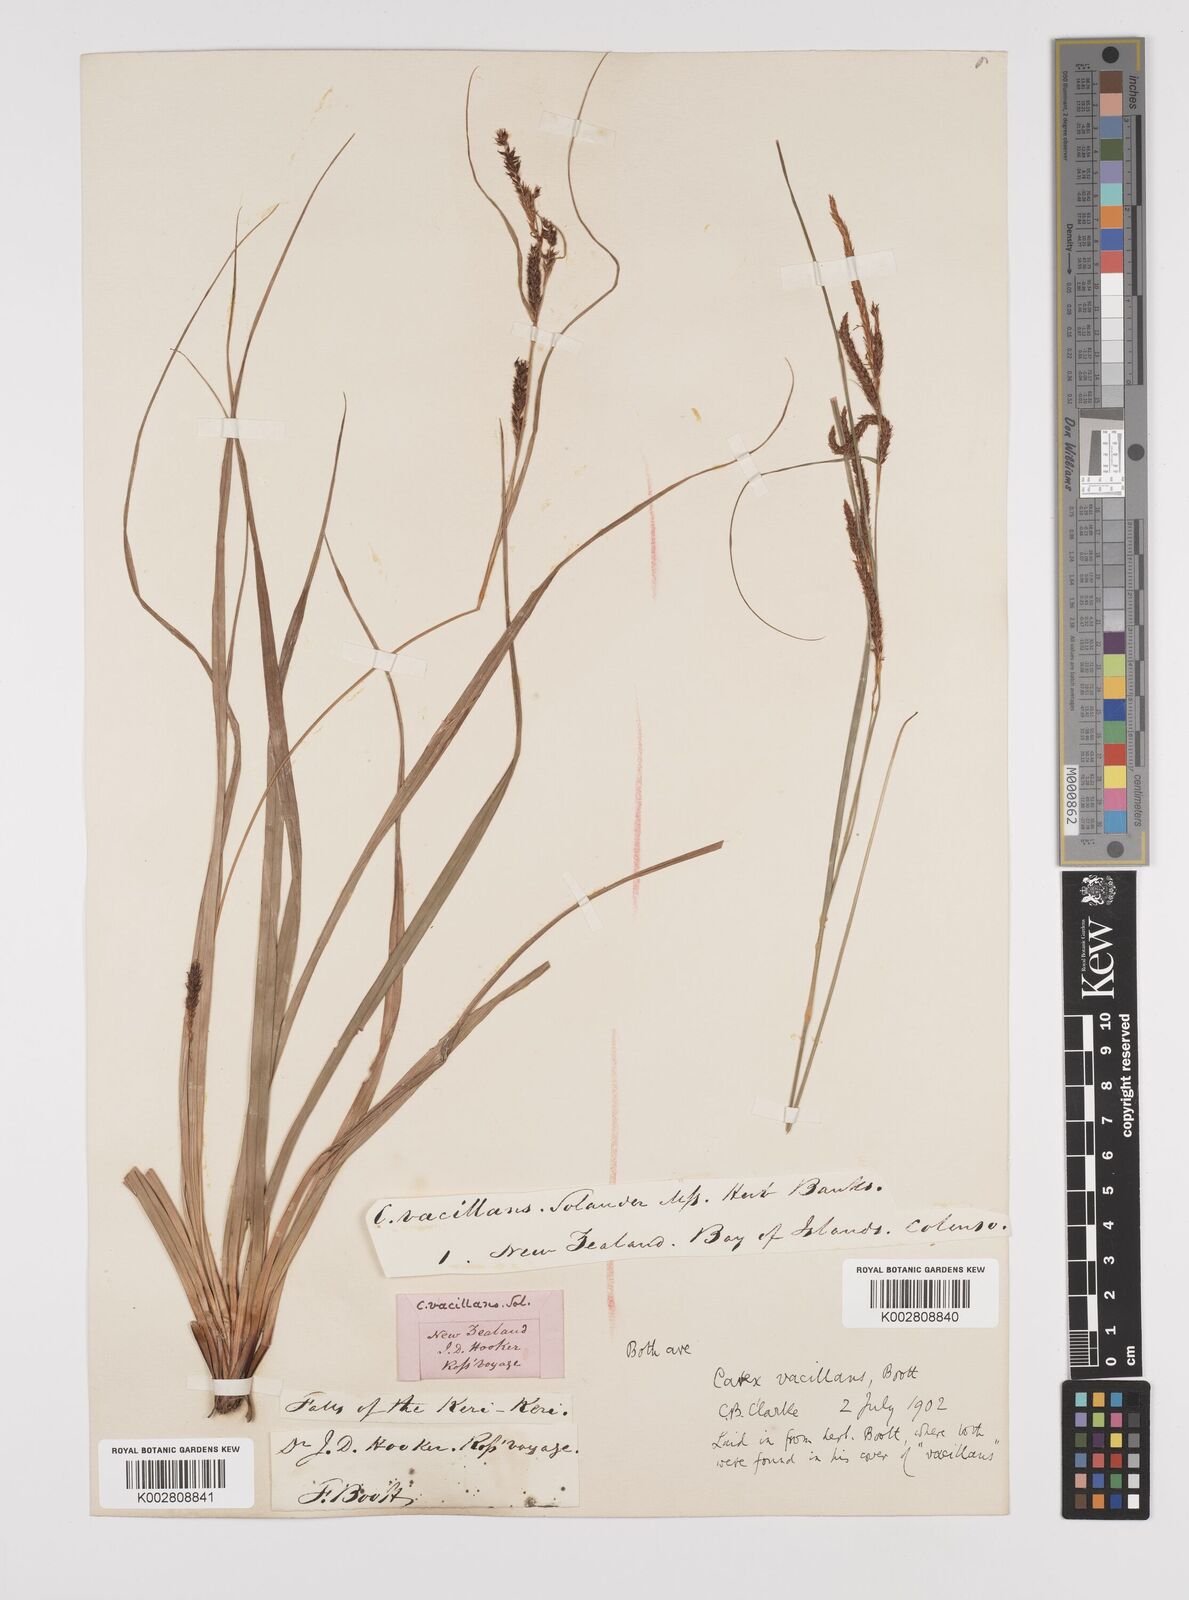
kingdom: Plantae
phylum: Tracheophyta
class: Liliopsida
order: Poales
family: Cyperaceae
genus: Carex
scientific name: Carex spinirostris
